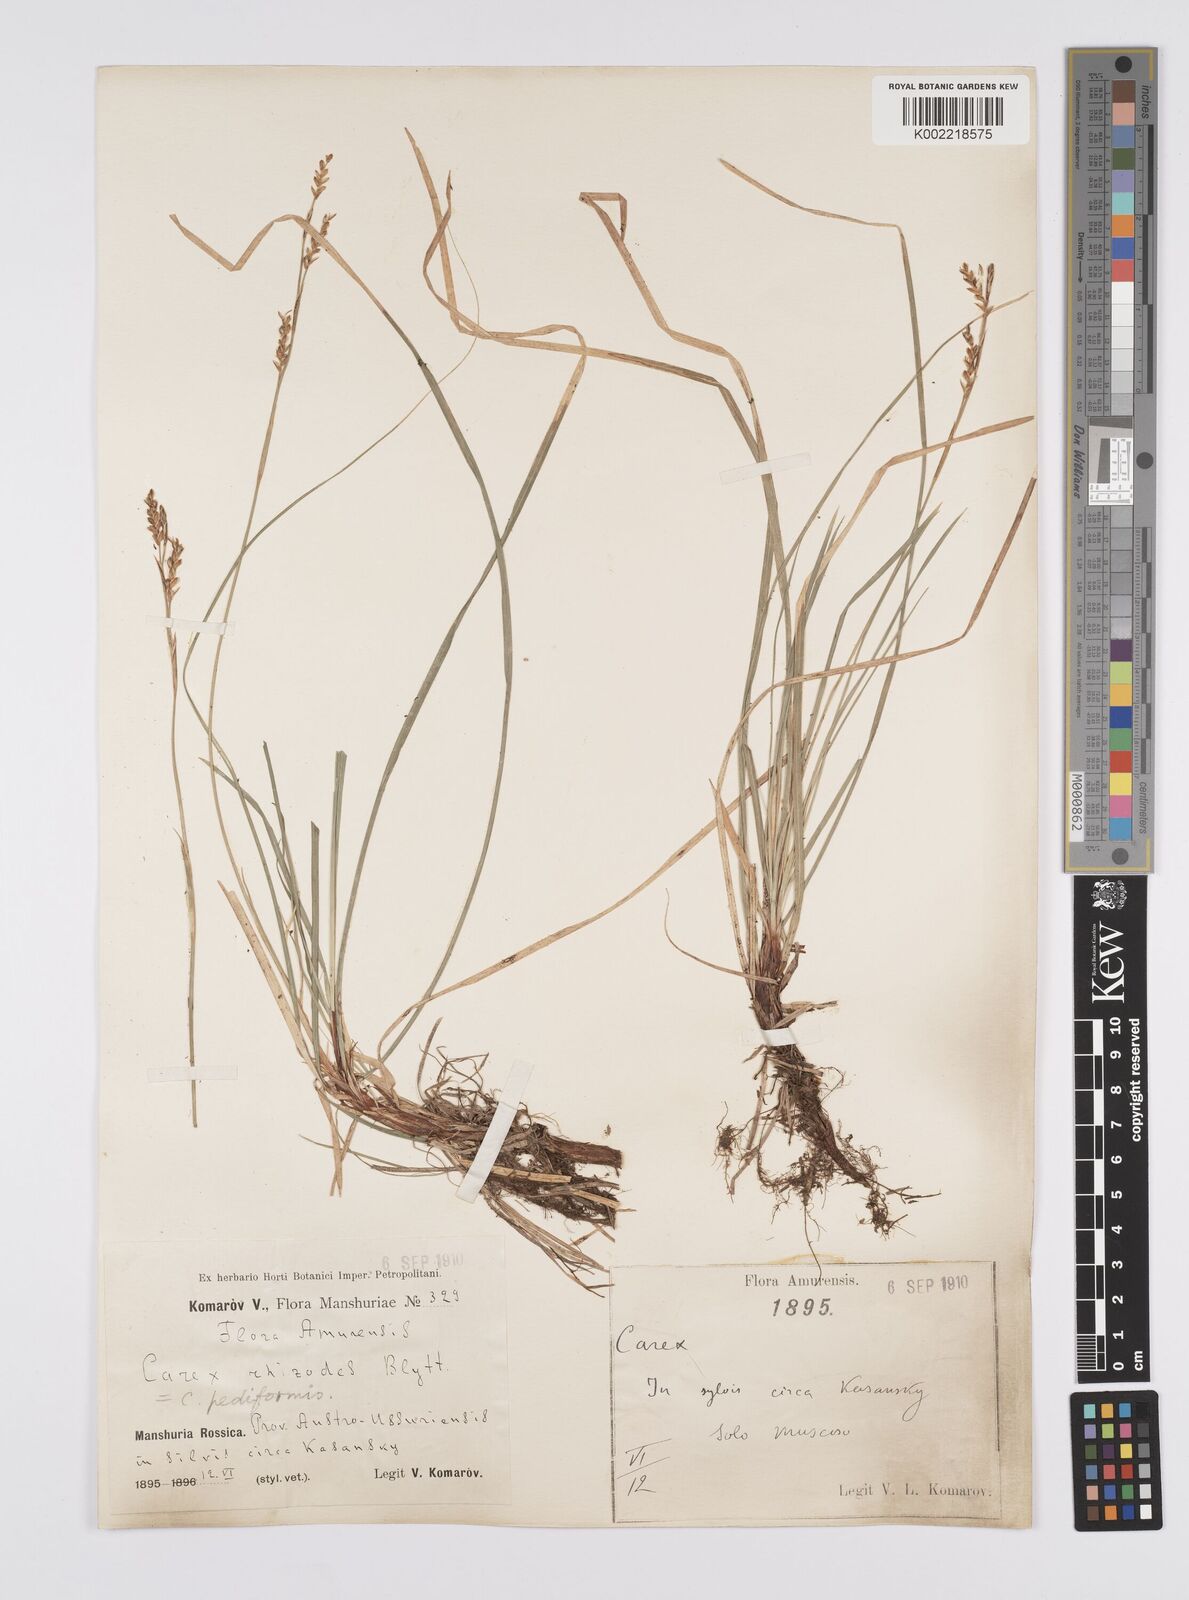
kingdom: Plantae
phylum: Tracheophyta
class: Liliopsida
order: Poales
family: Cyperaceae
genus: Carex
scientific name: Carex pediformis
